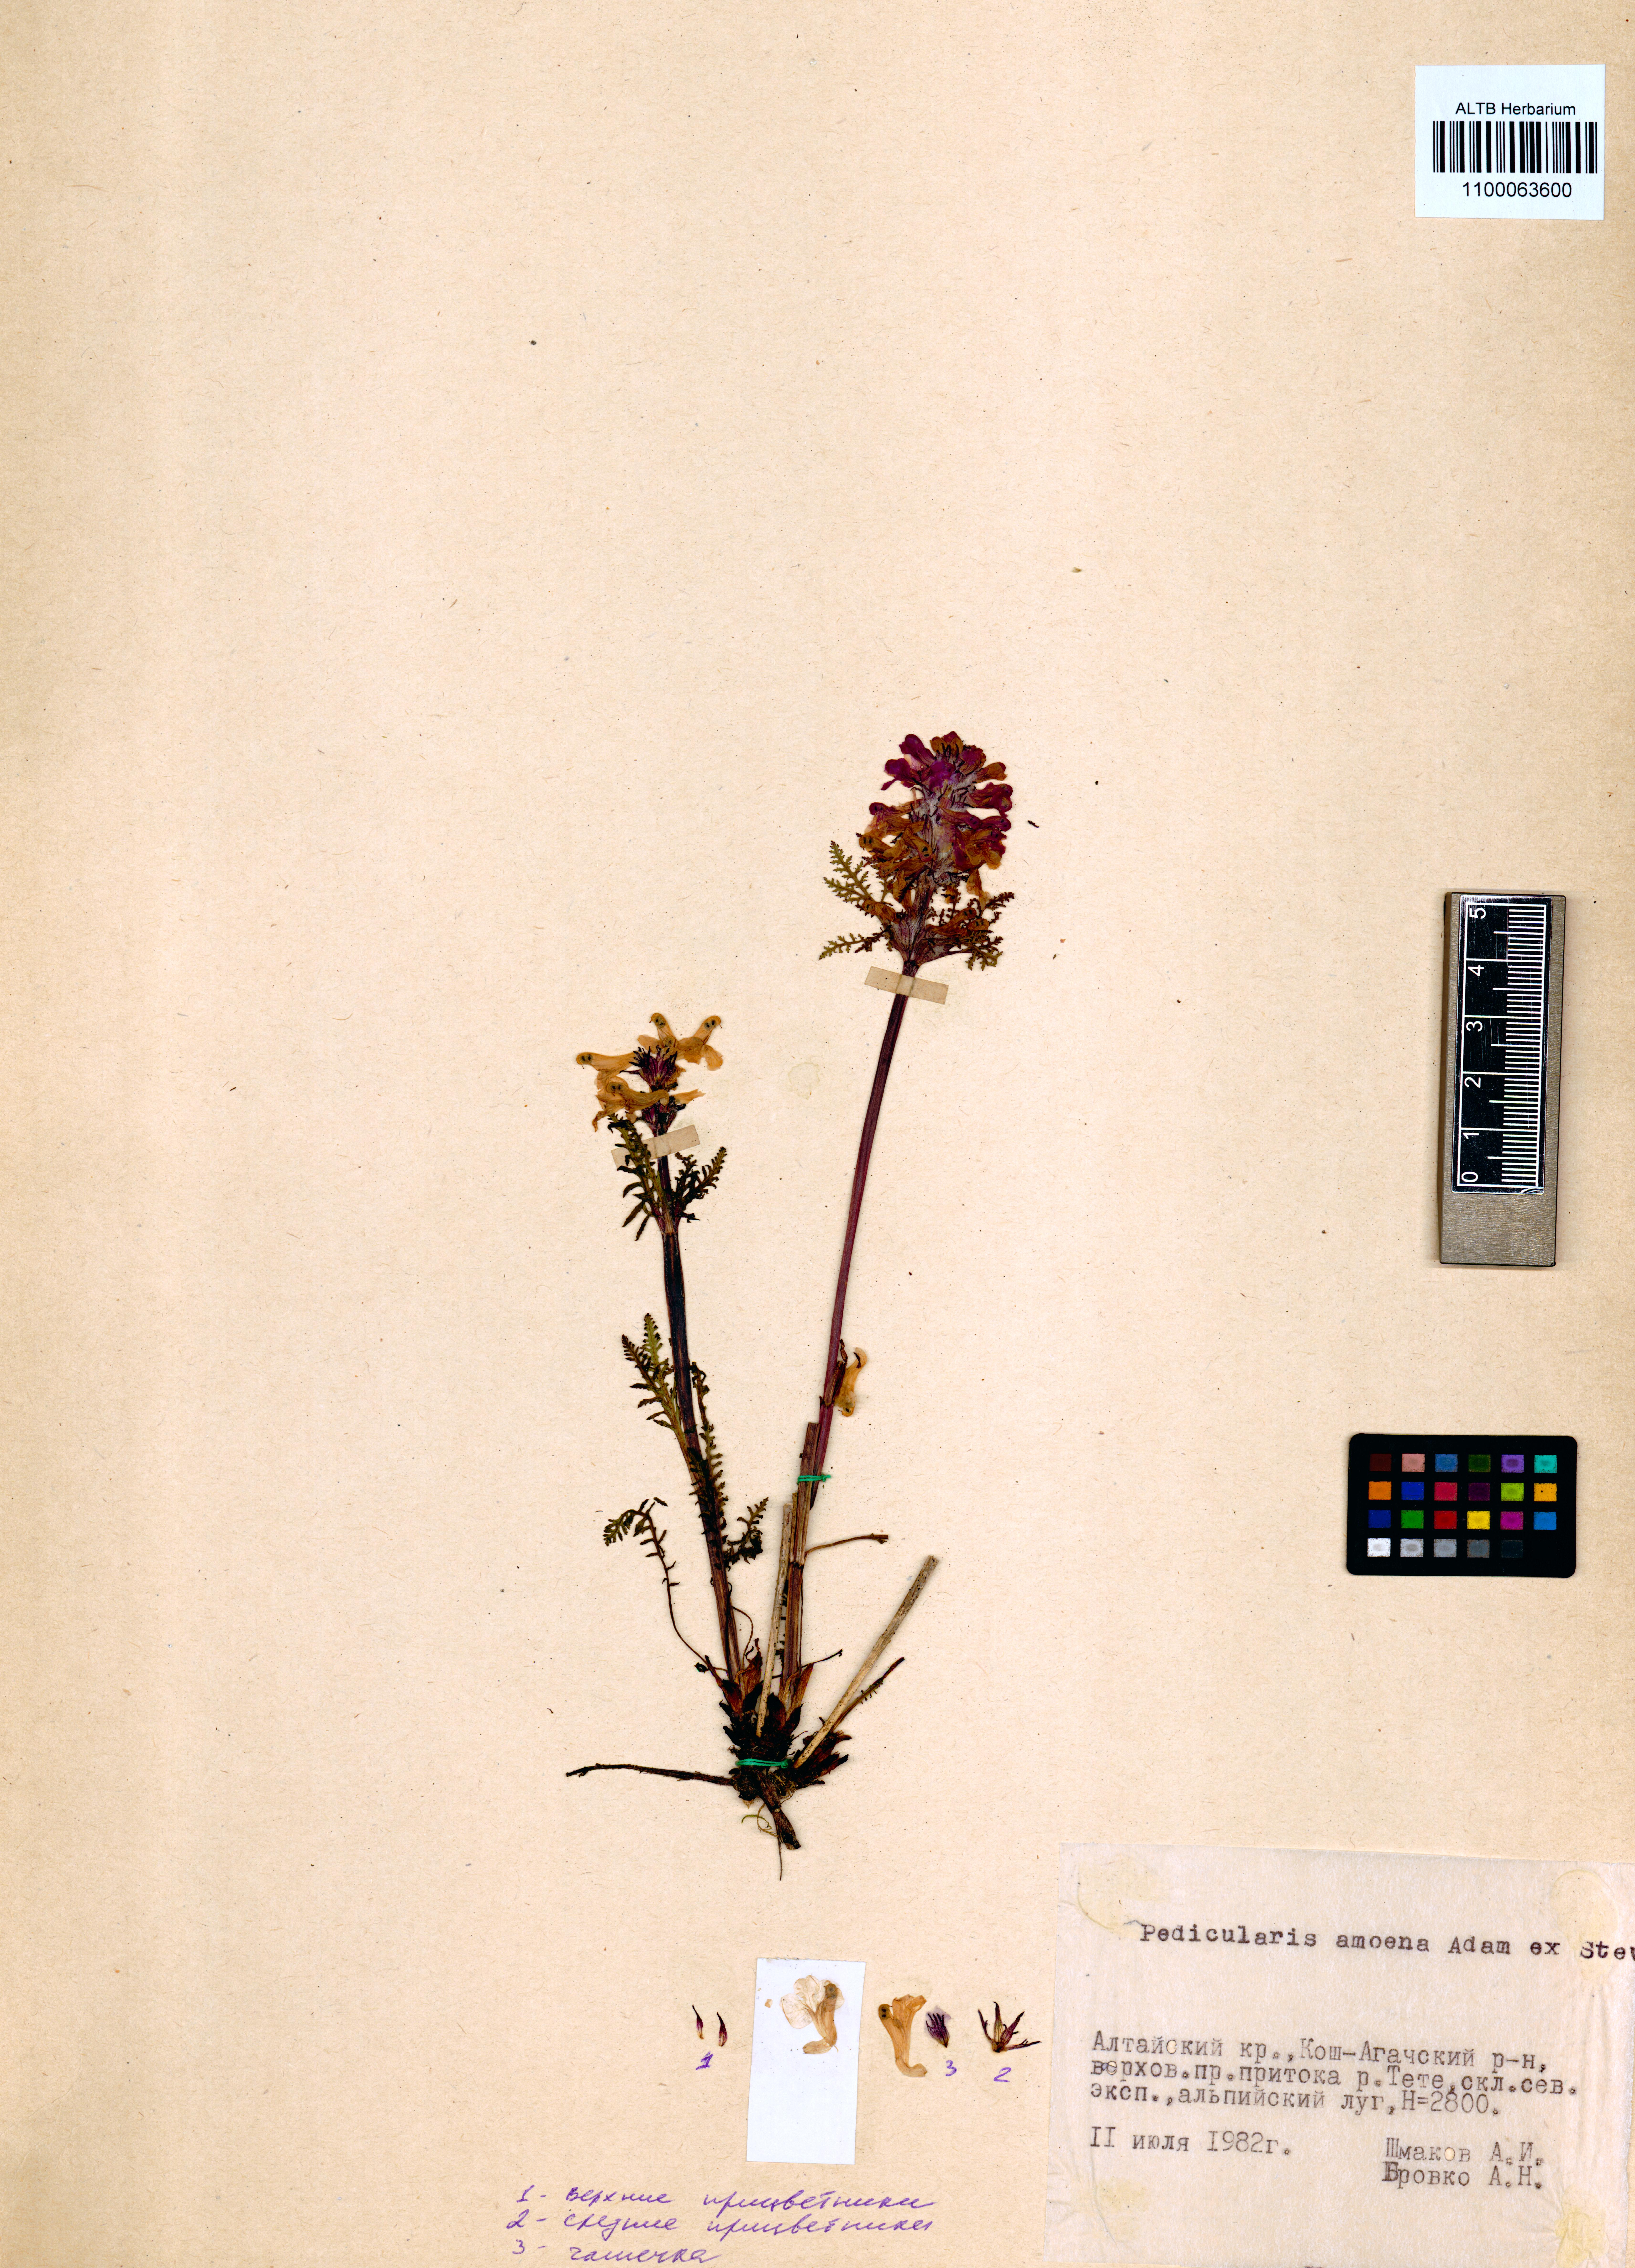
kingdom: Plantae
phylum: Tracheophyta
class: Magnoliopsida
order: Lamiales
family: Orobanchaceae
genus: Pedicularis
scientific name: Pedicularis amoena
